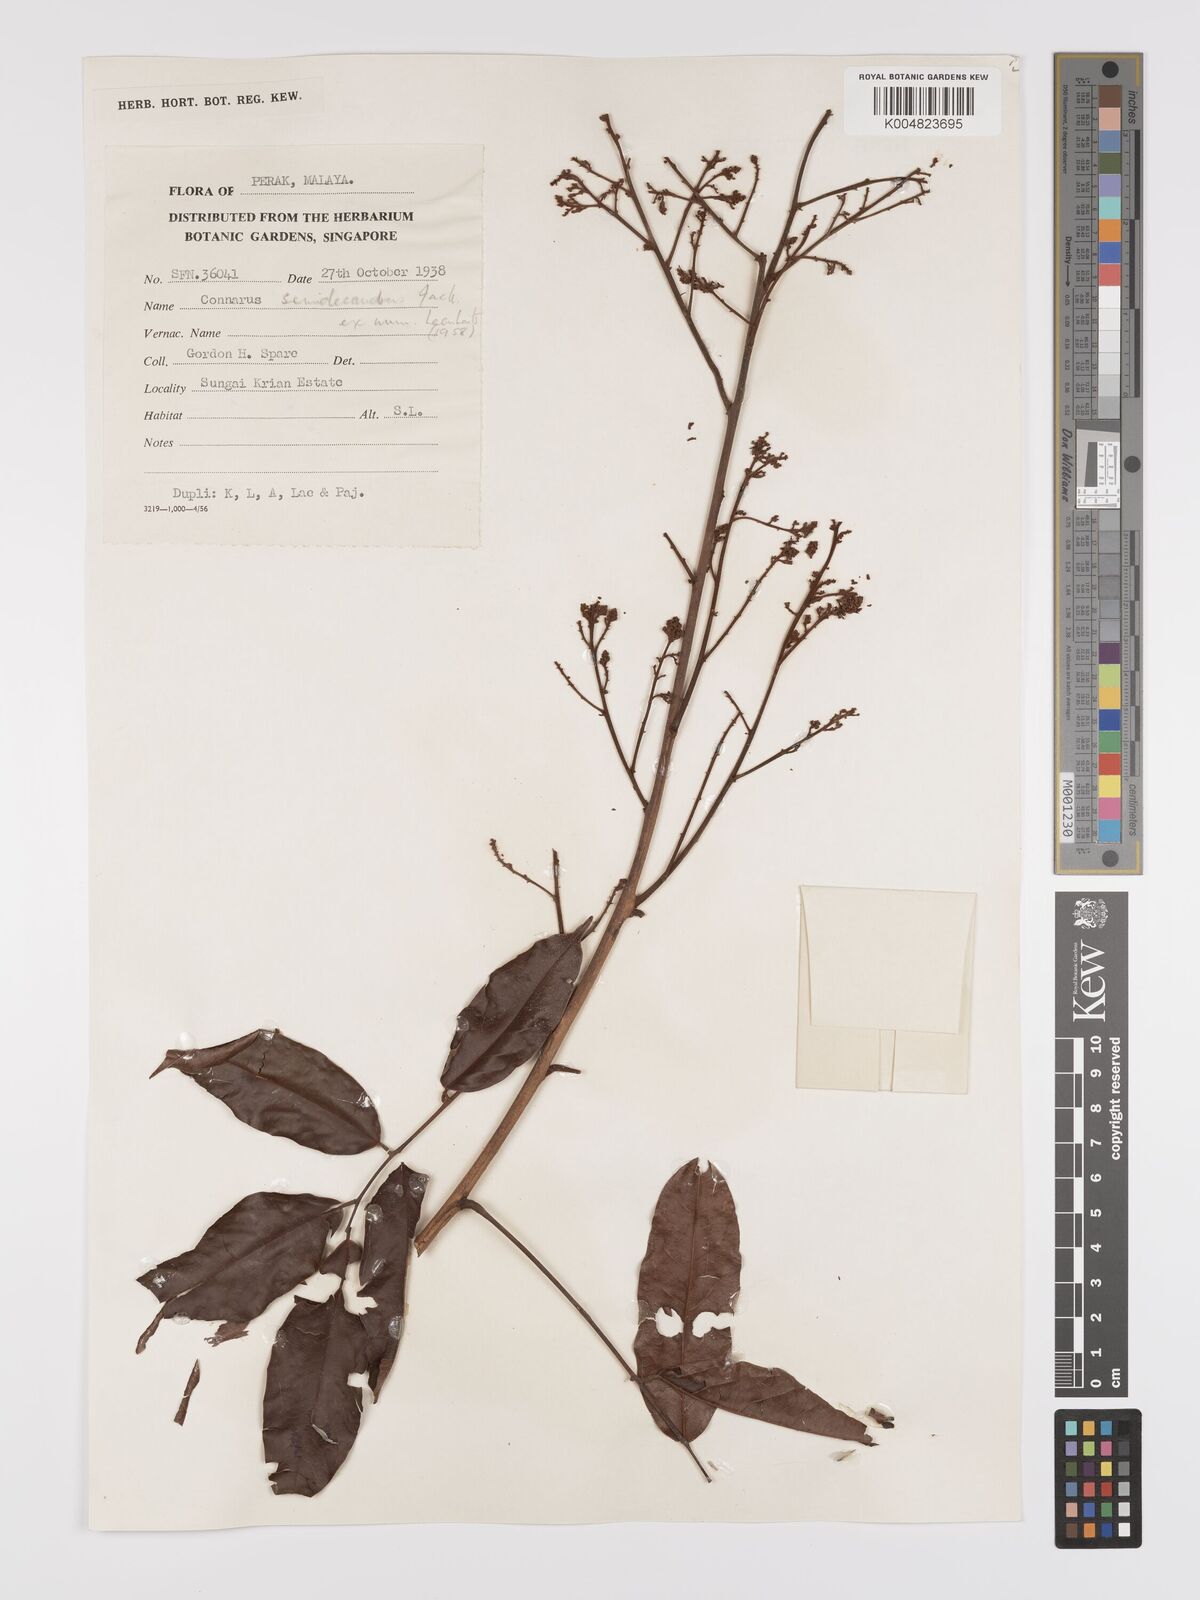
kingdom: Plantae
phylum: Tracheophyta
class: Magnoliopsida
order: Oxalidales
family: Connaraceae
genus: Connarus
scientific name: Connarus semidecandrus
